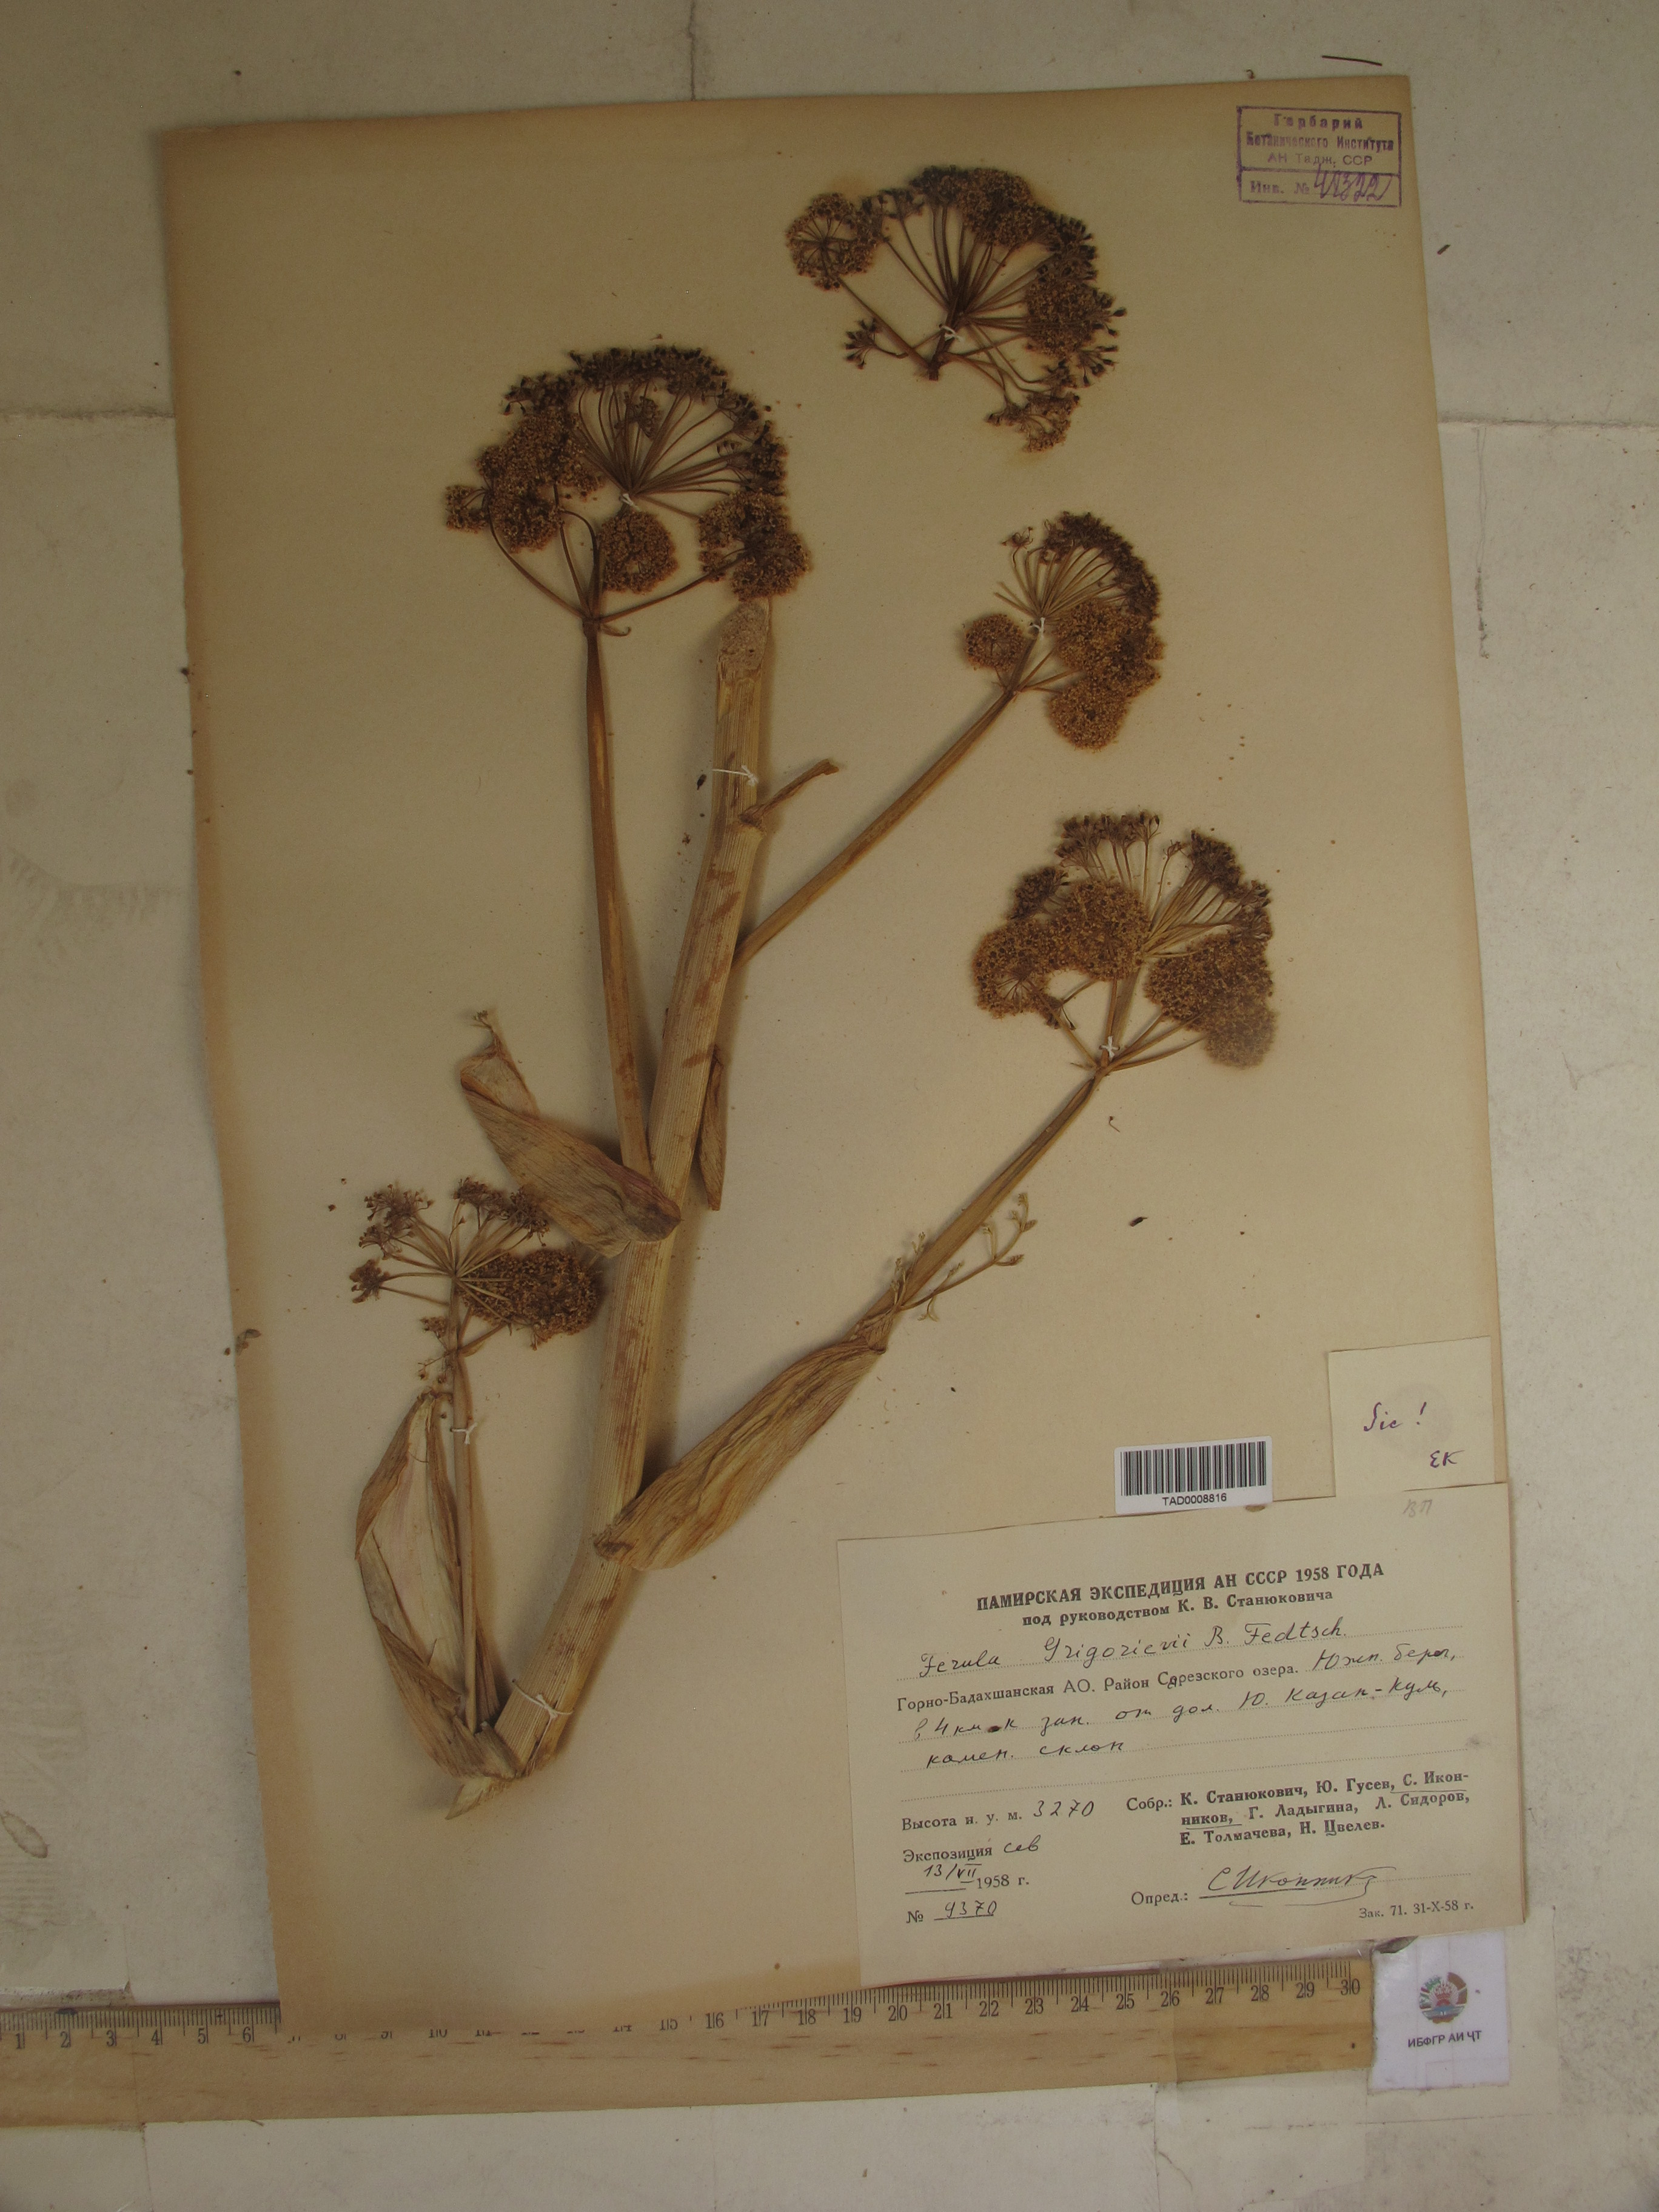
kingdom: Plantae
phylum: Tracheophyta
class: Magnoliopsida
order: Apiales
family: Apiaceae
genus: Ferula
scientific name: Ferula grigoriewii
